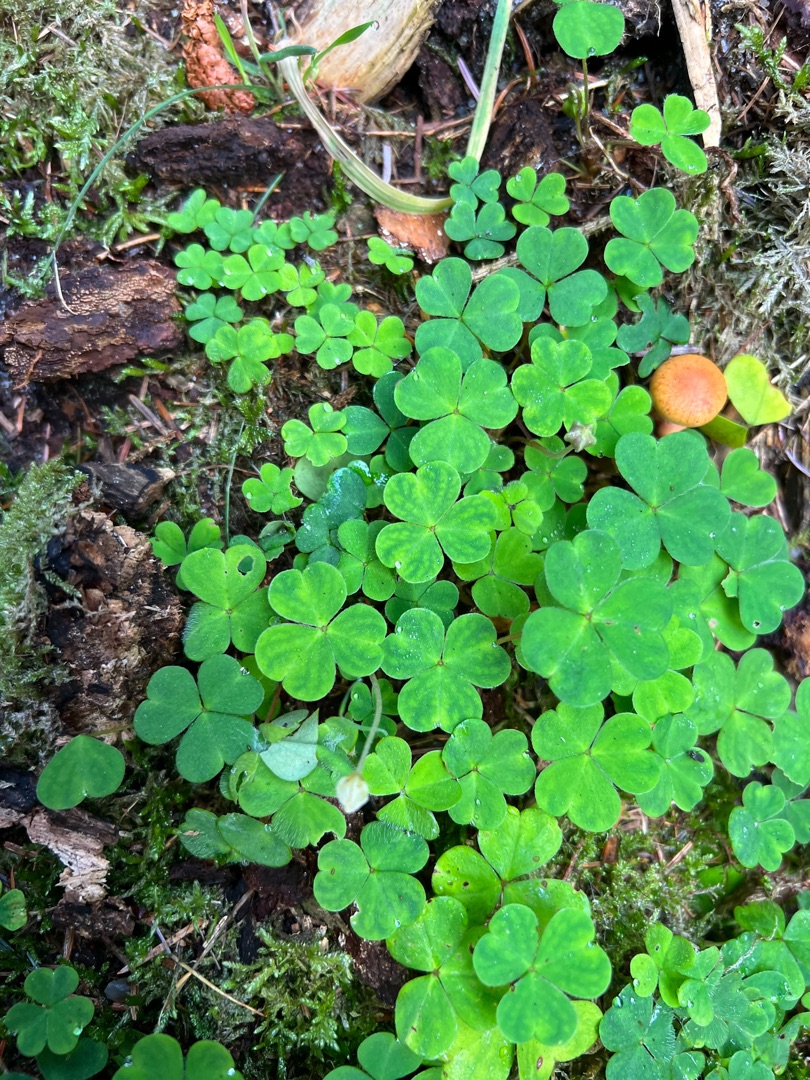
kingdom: Plantae
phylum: Tracheophyta
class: Magnoliopsida
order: Oxalidales
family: Oxalidaceae
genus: Oxalis
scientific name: Oxalis acetosella
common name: Skovsyre
